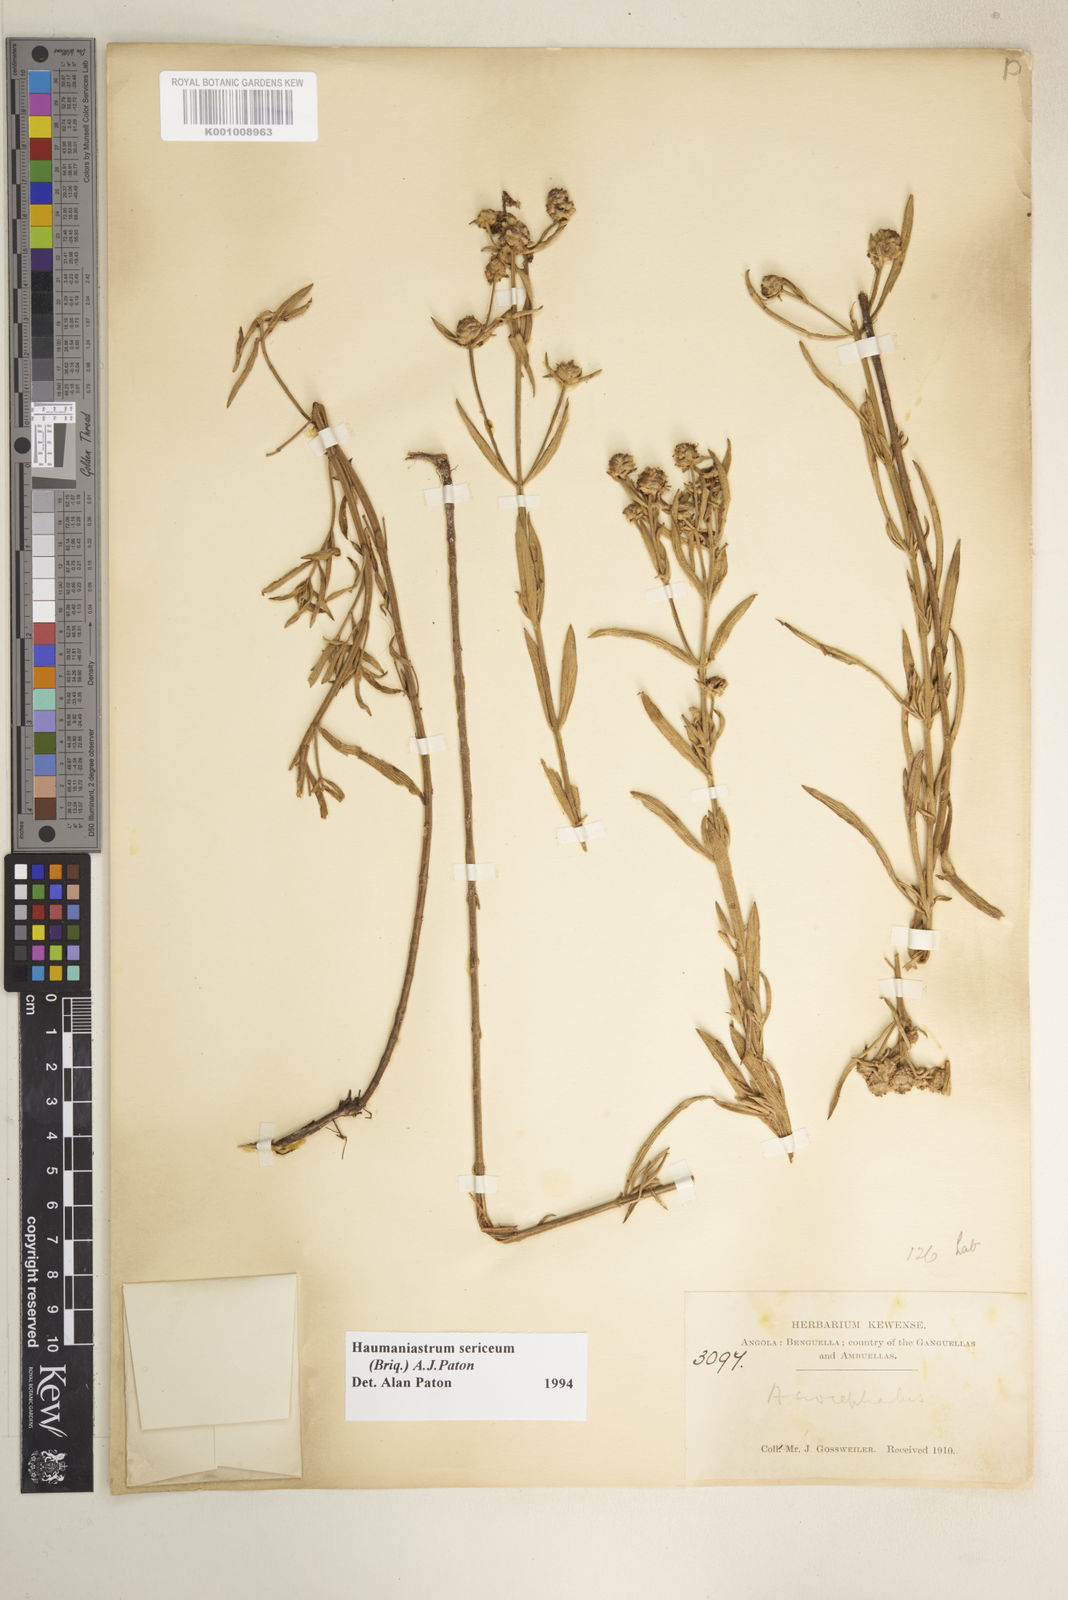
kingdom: Plantae
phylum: Tracheophyta
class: Magnoliopsida
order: Lamiales
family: Lamiaceae
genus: Haumaniastrum
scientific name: Haumaniastrum sericeum
